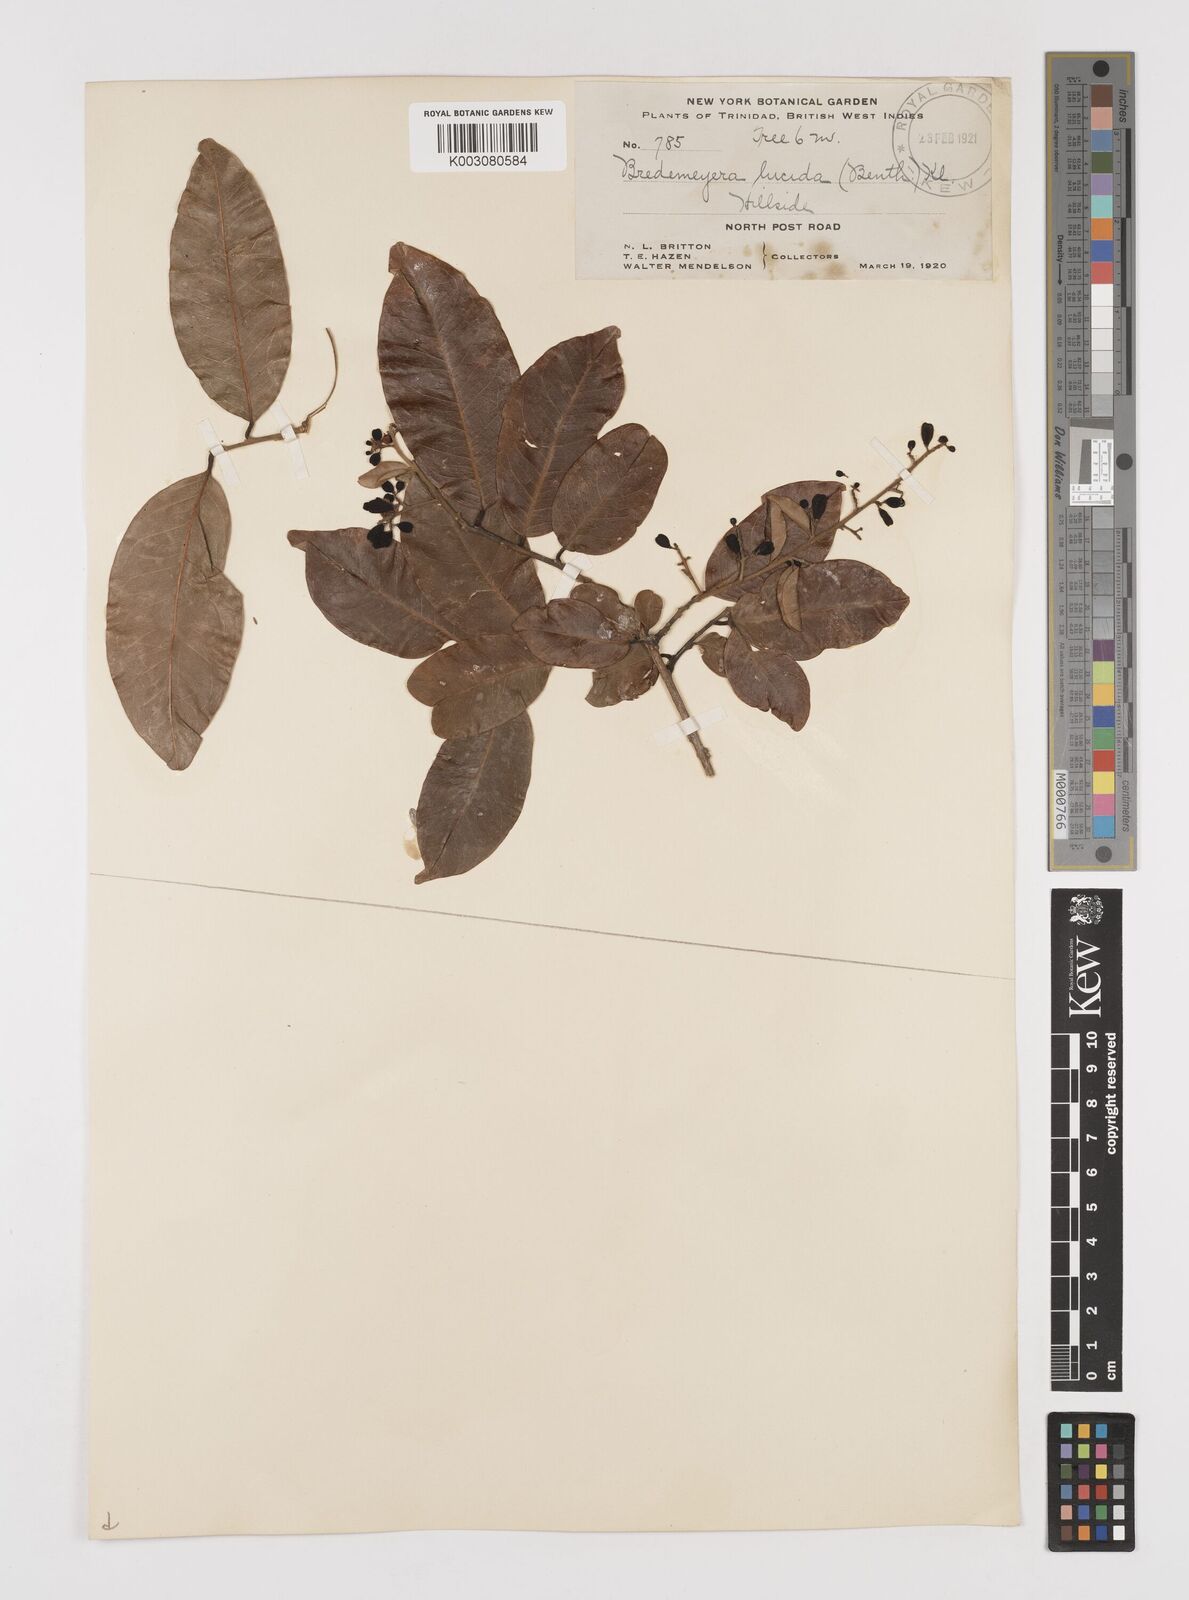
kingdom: Plantae
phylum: Tracheophyta
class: Magnoliopsida
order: Fabales
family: Polygalaceae
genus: Bredemeyera
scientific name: Bredemeyera lucida
